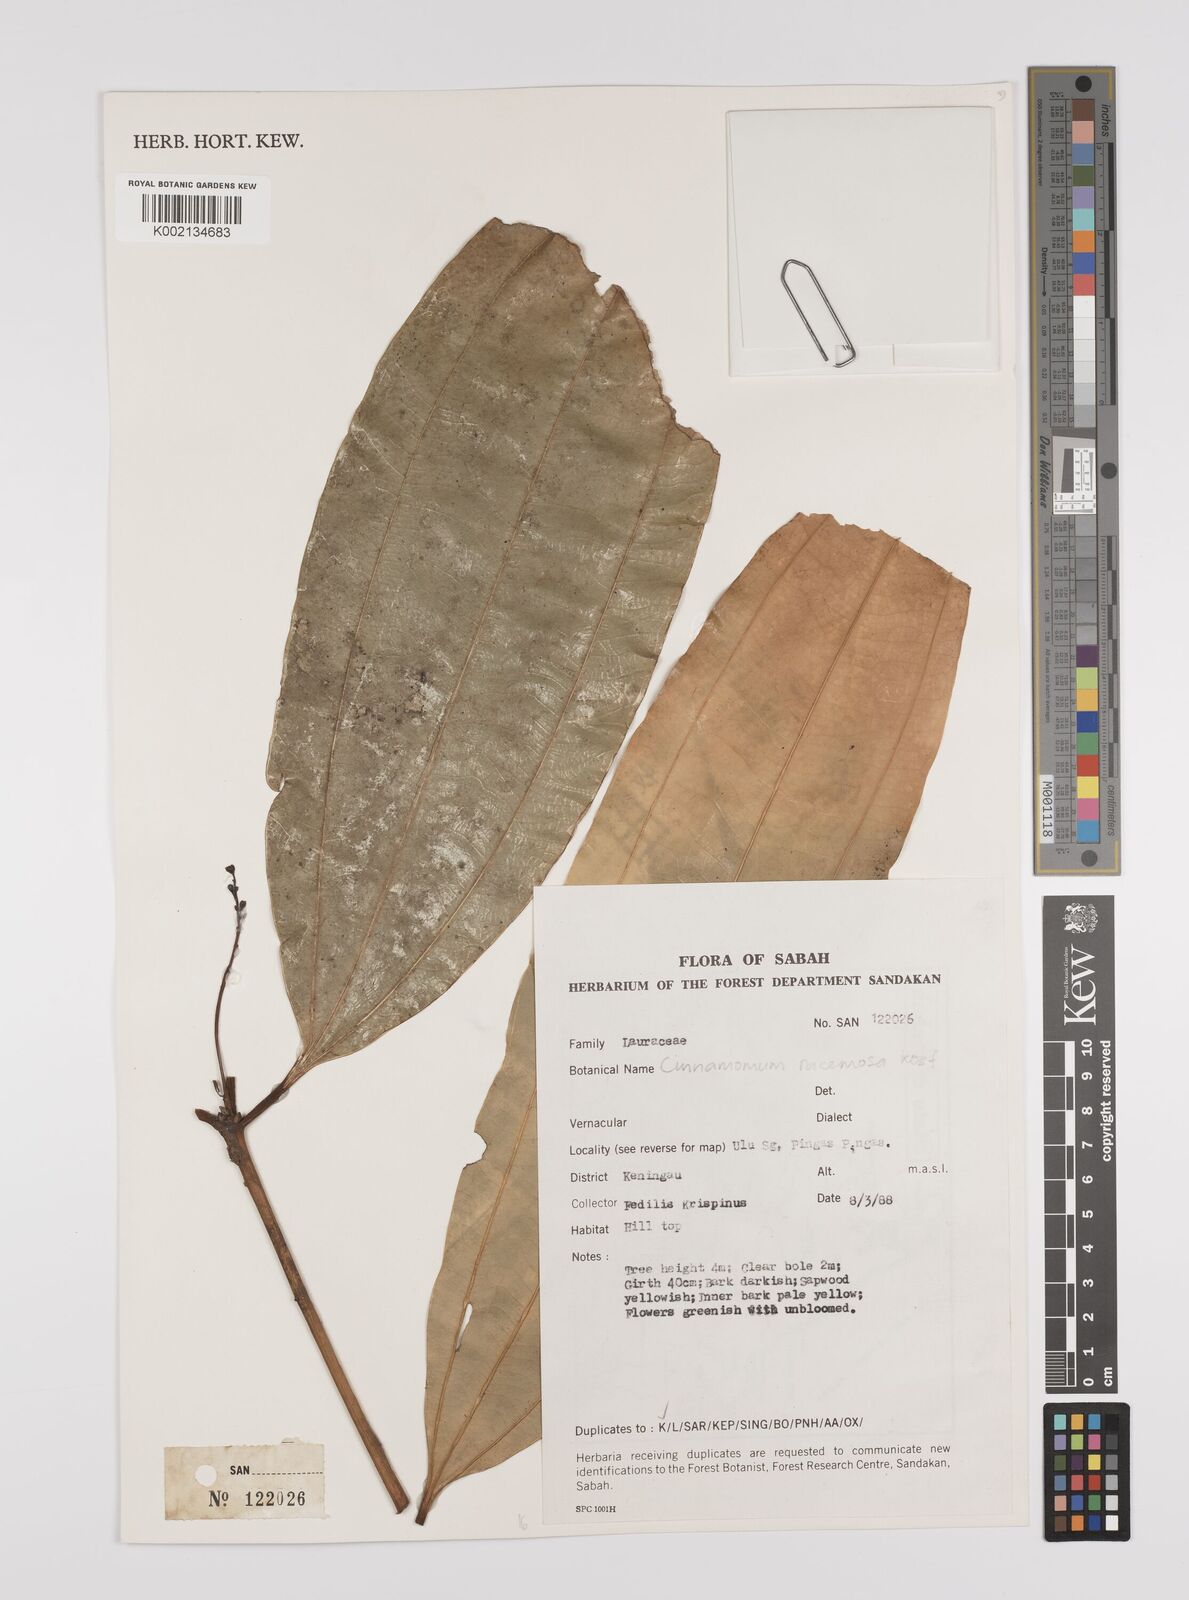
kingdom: Plantae
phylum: Tracheophyta
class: Magnoliopsida
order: Laurales
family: Lauraceae
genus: Cinnamomum
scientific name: Cinnamomum racemosum
